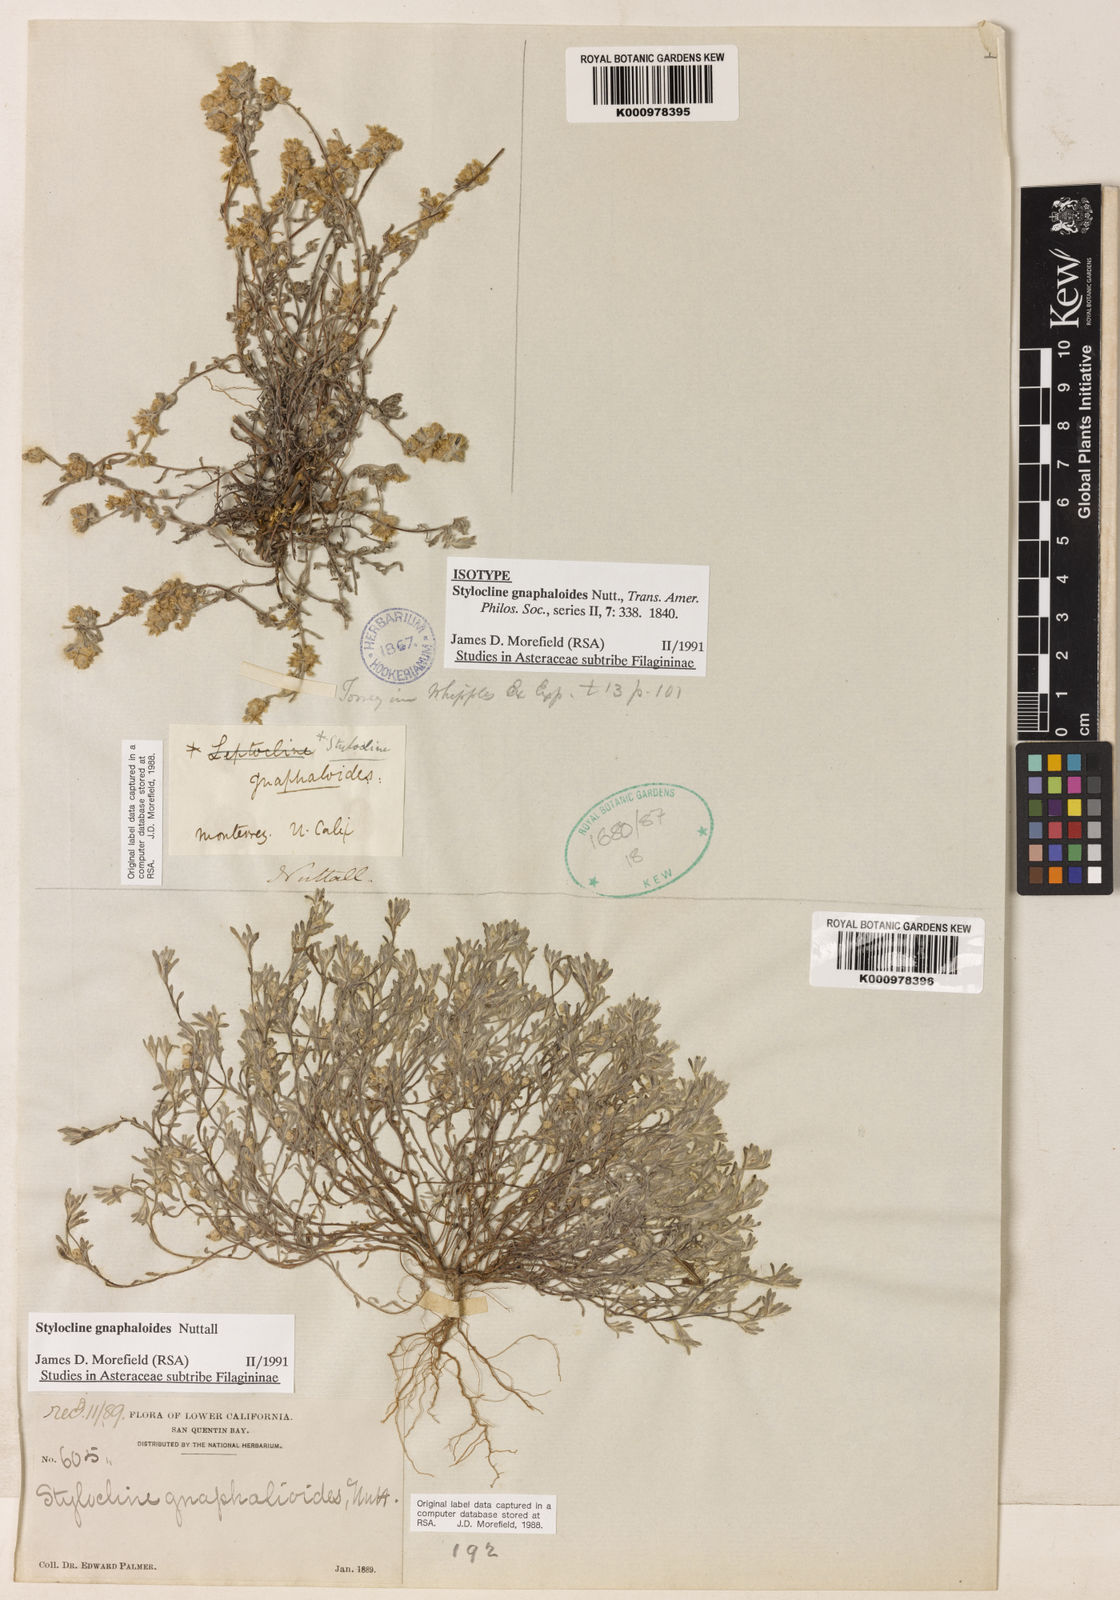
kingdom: Plantae
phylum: Tracheophyta
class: Magnoliopsida
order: Asterales
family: Asteraceae
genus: Stylocline
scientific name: Stylocline
